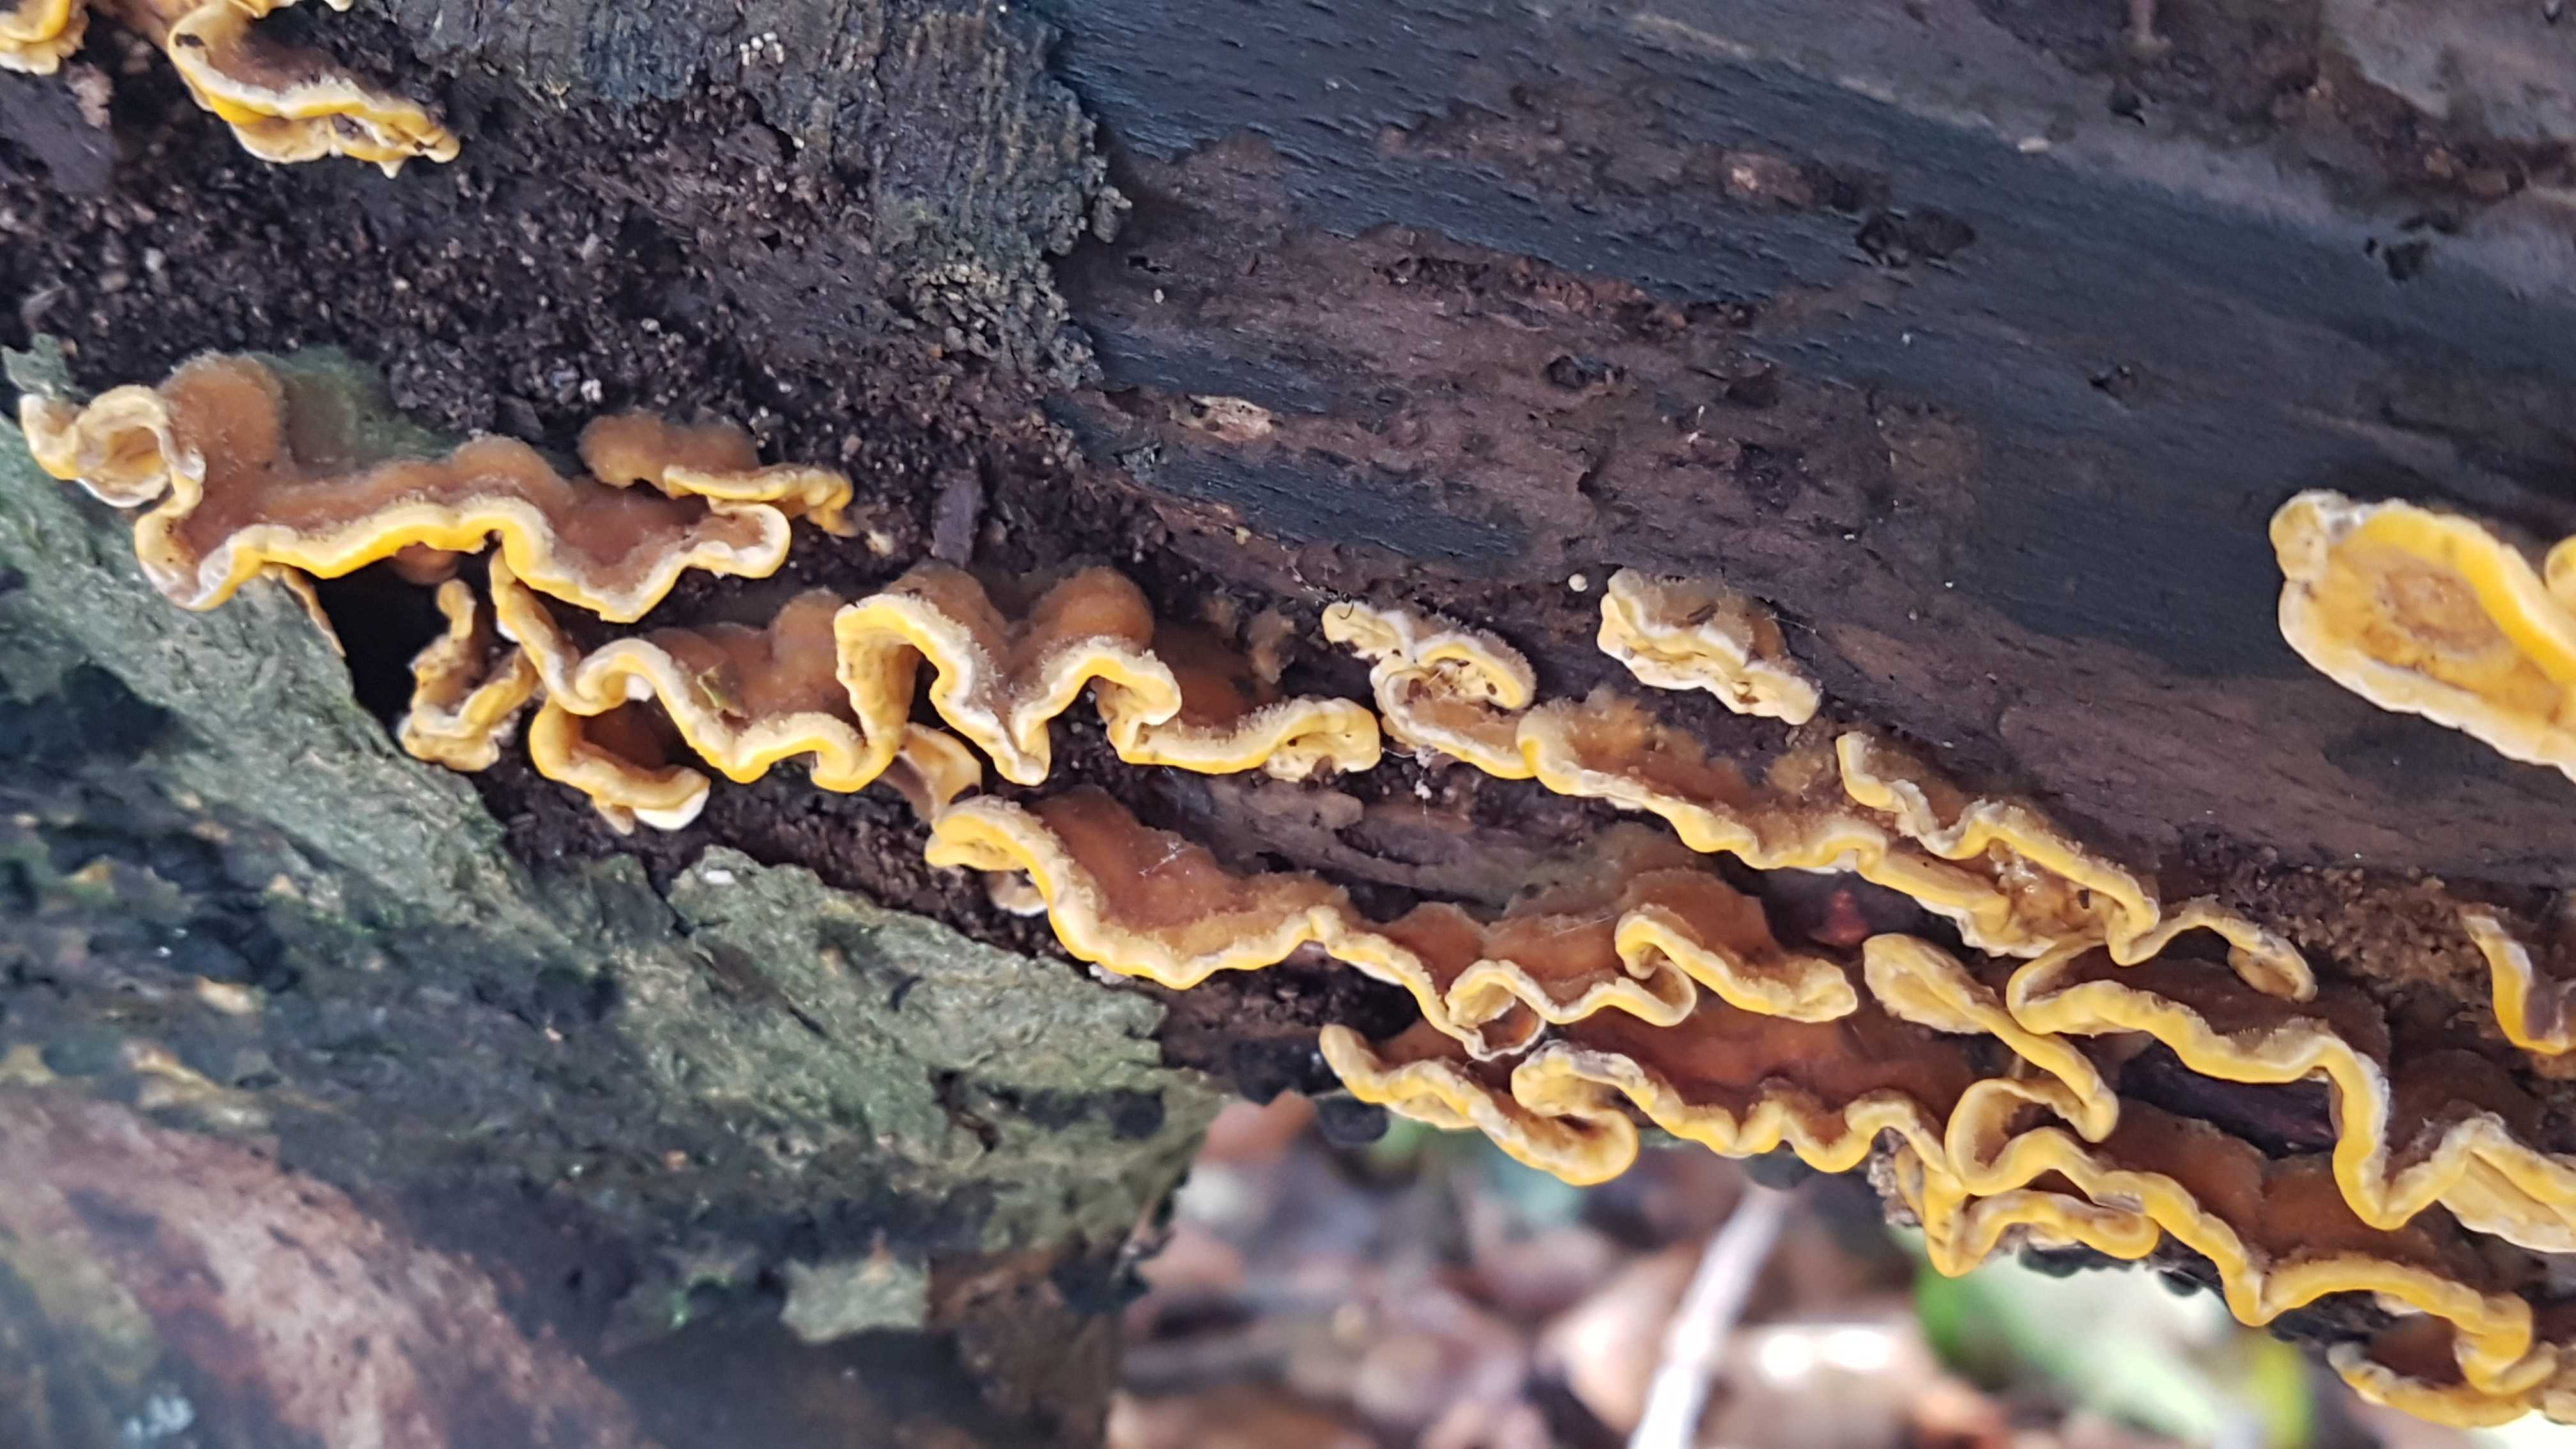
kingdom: Fungi
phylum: Basidiomycota
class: Agaricomycetes
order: Russulales
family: Stereaceae
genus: Stereum
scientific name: Stereum hirsutum
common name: håret lædersvamp
